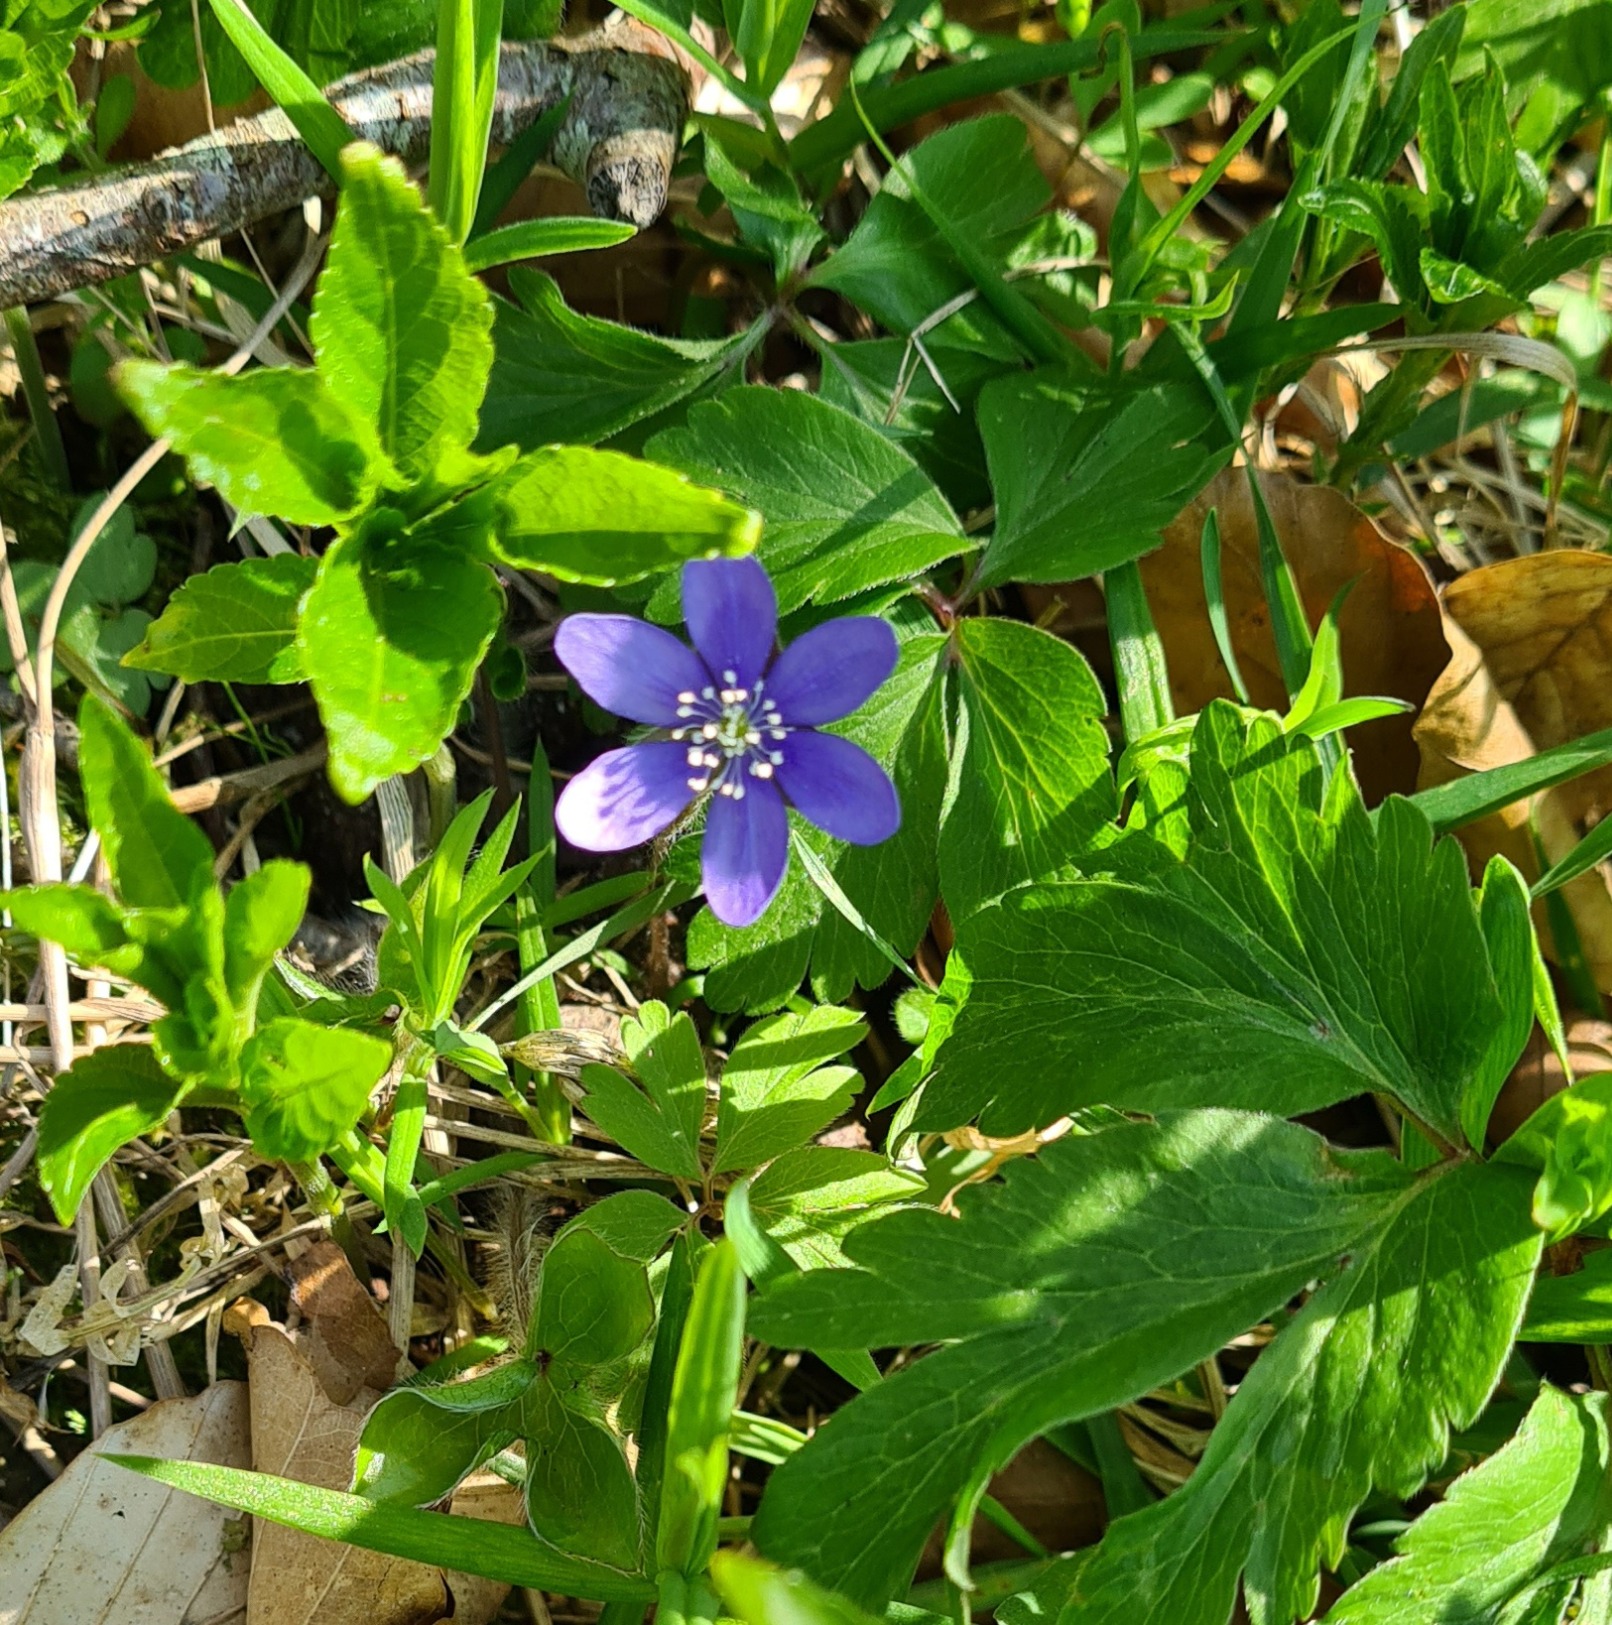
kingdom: Plantae
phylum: Tracheophyta
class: Magnoliopsida
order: Ranunculales
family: Ranunculaceae
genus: Hepatica
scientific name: Hepatica nobilis
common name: Blå anemone
